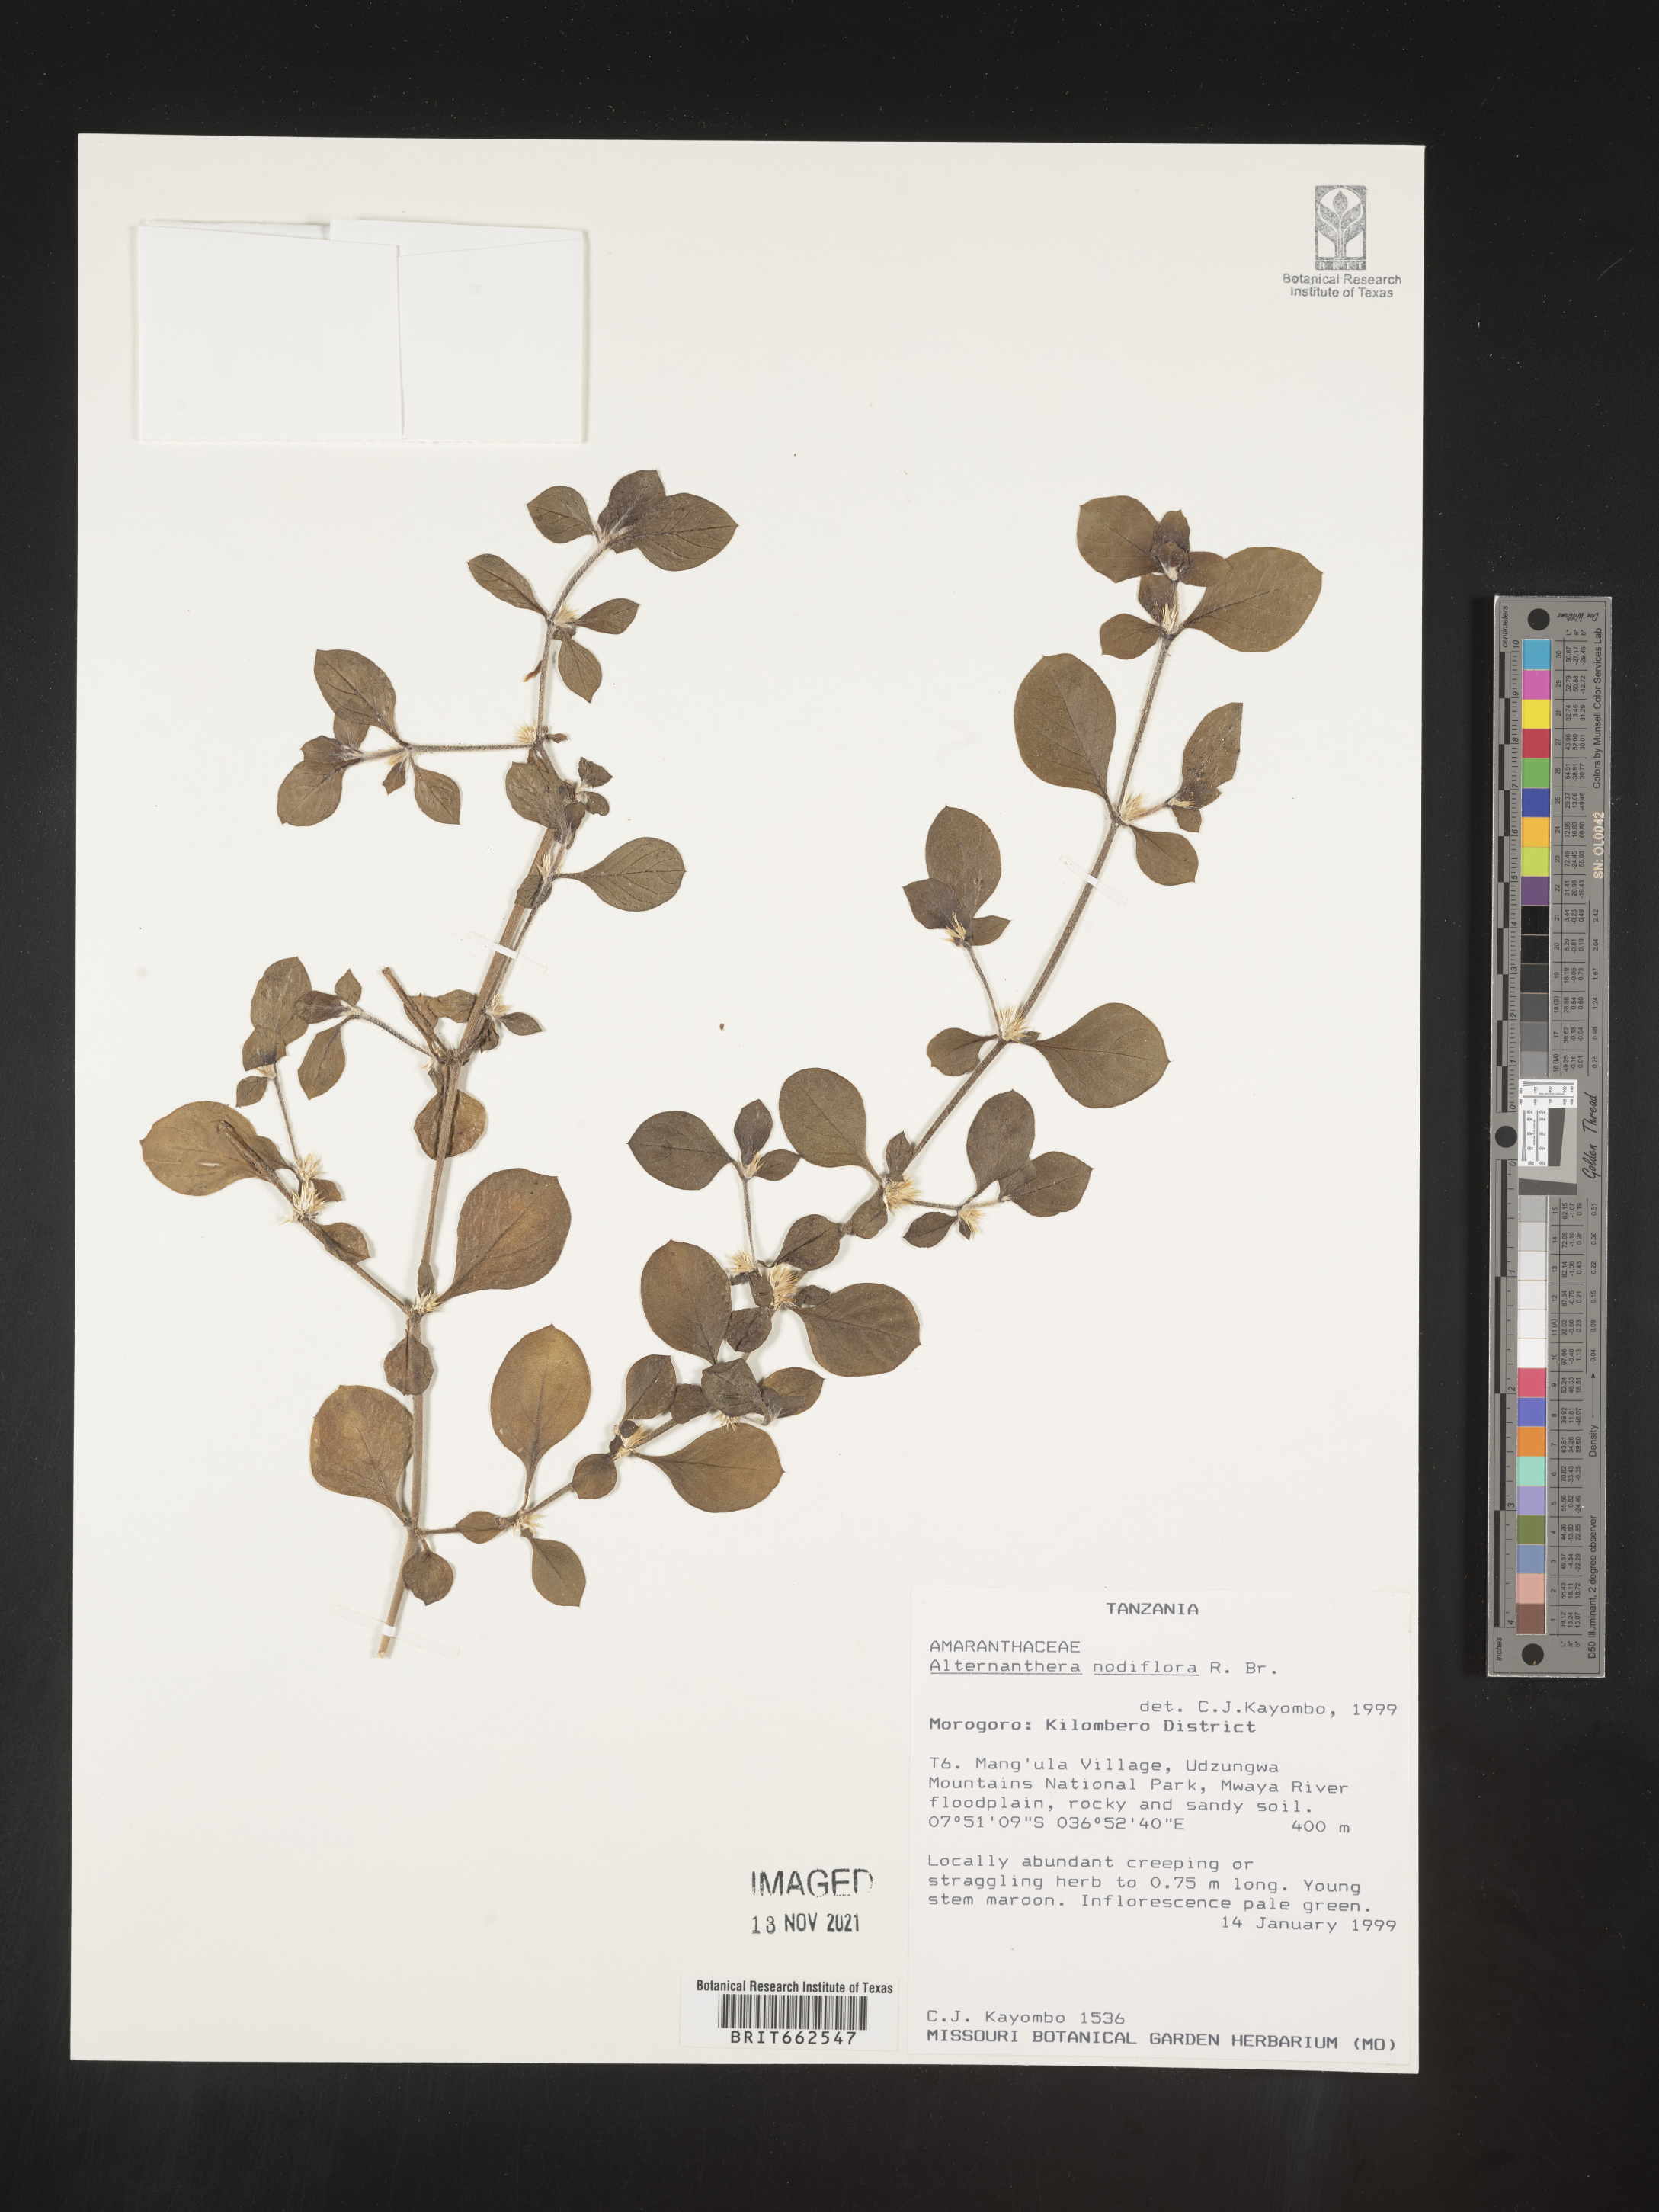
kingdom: Plantae
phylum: Tracheophyta
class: Magnoliopsida
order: Caryophyllales
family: Amaranthaceae
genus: Alternanthera
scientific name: Alternanthera
